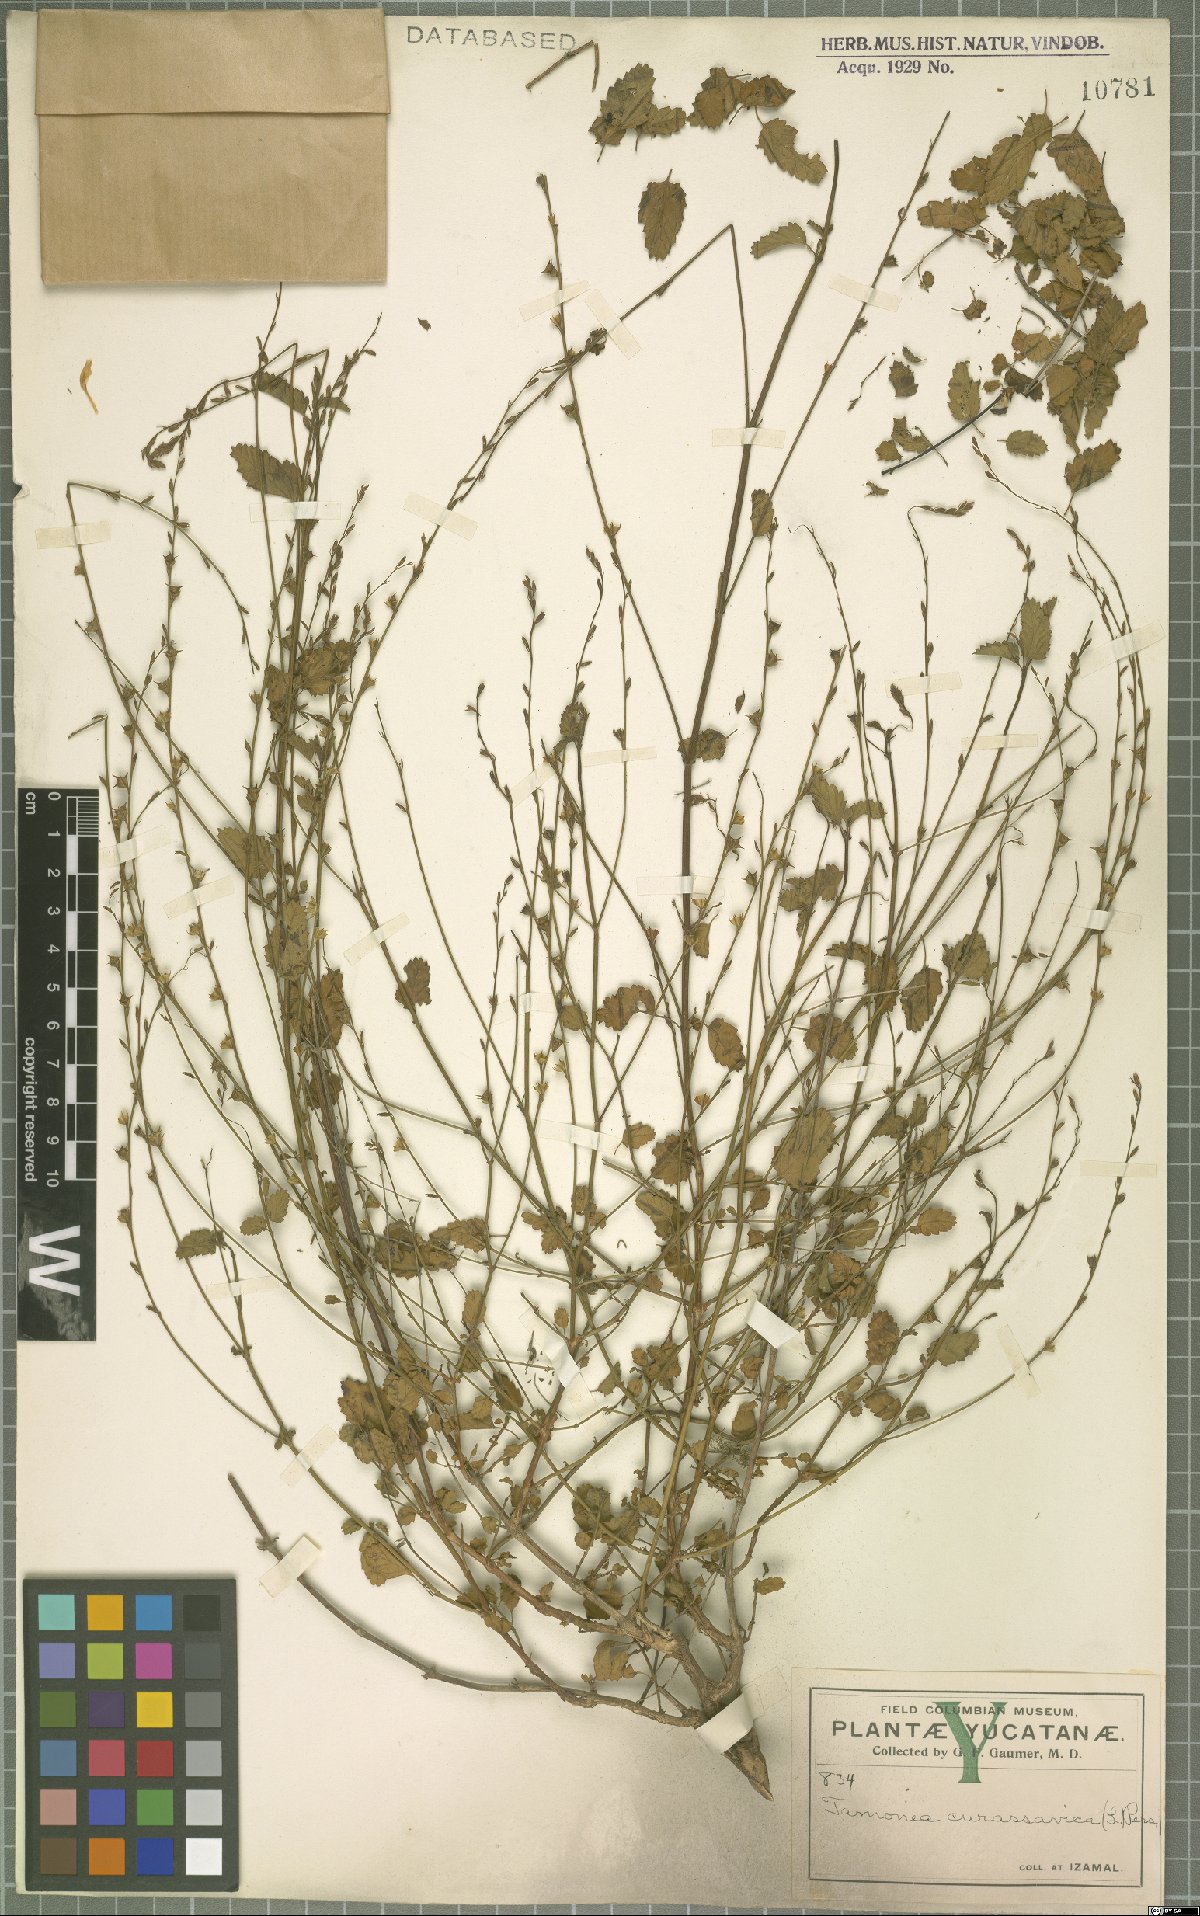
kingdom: Plantae
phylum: Tracheophyta
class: Magnoliopsida
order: Lamiales
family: Verbenaceae
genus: Tamonea
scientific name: Tamonea curassavica
